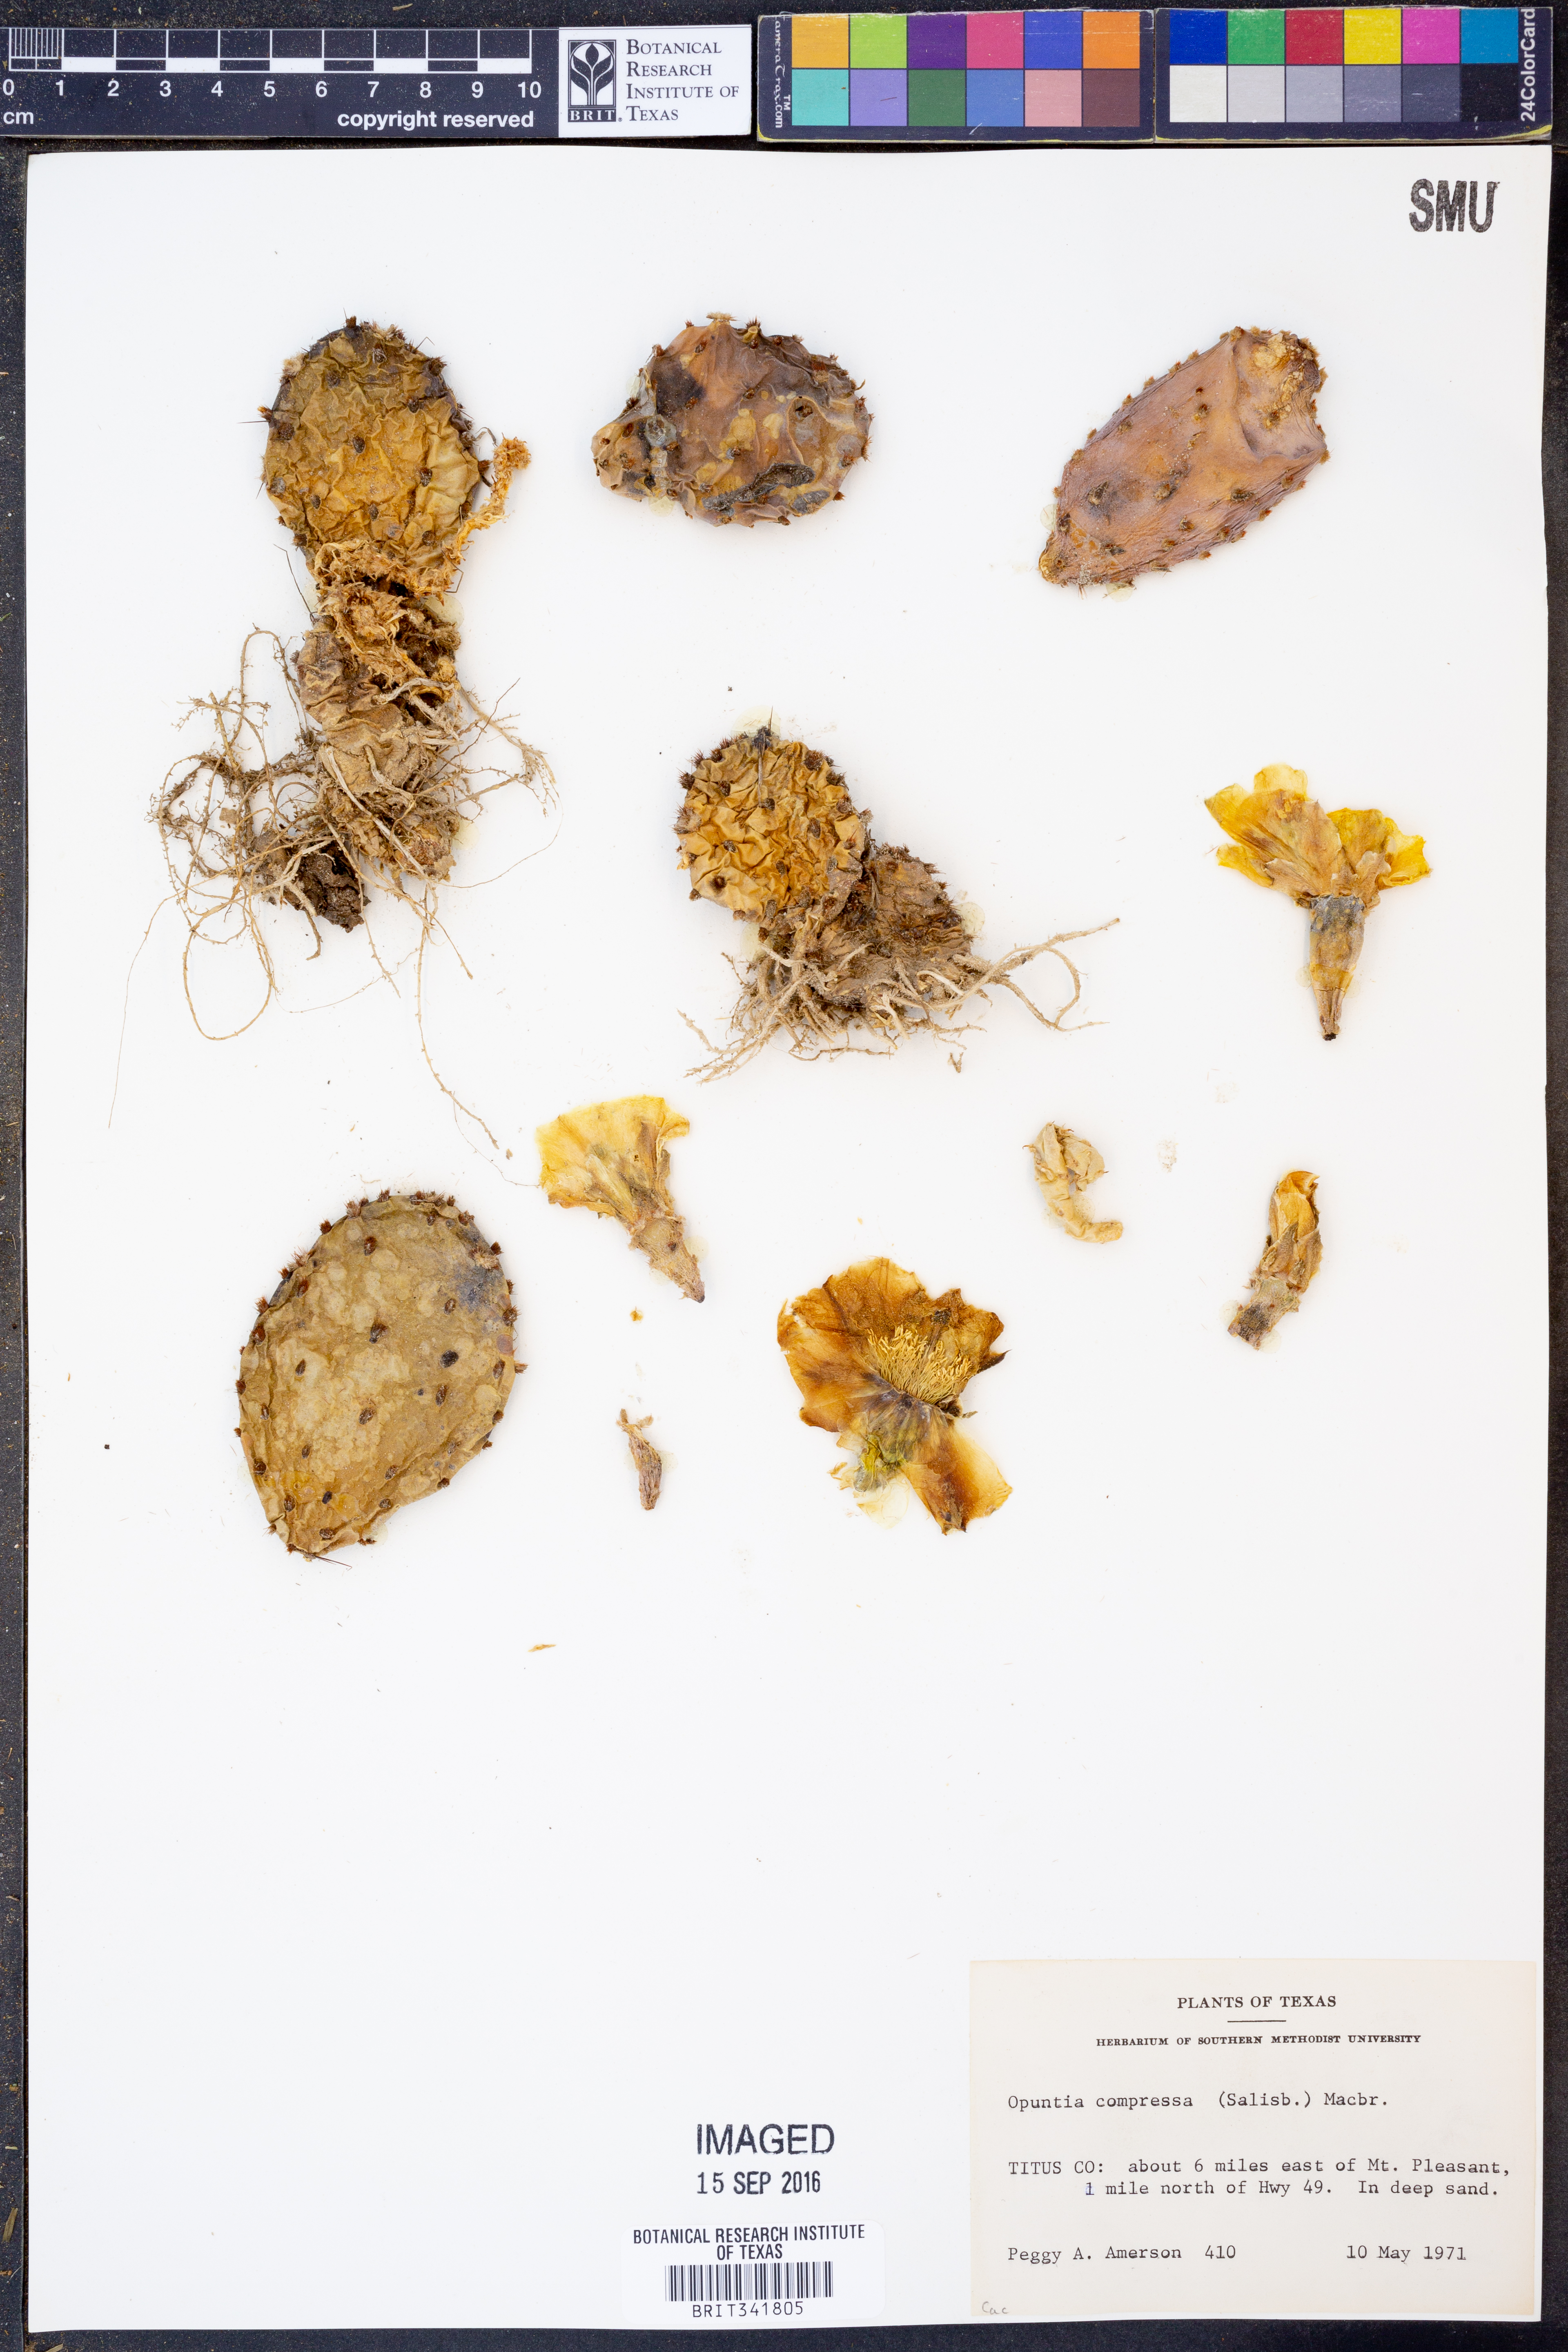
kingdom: Plantae
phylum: Tracheophyta
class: Magnoliopsida
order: Caryophyllales
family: Cactaceae
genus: Opuntia
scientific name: Opuntia humifusa
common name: Eastern prickly-pear
